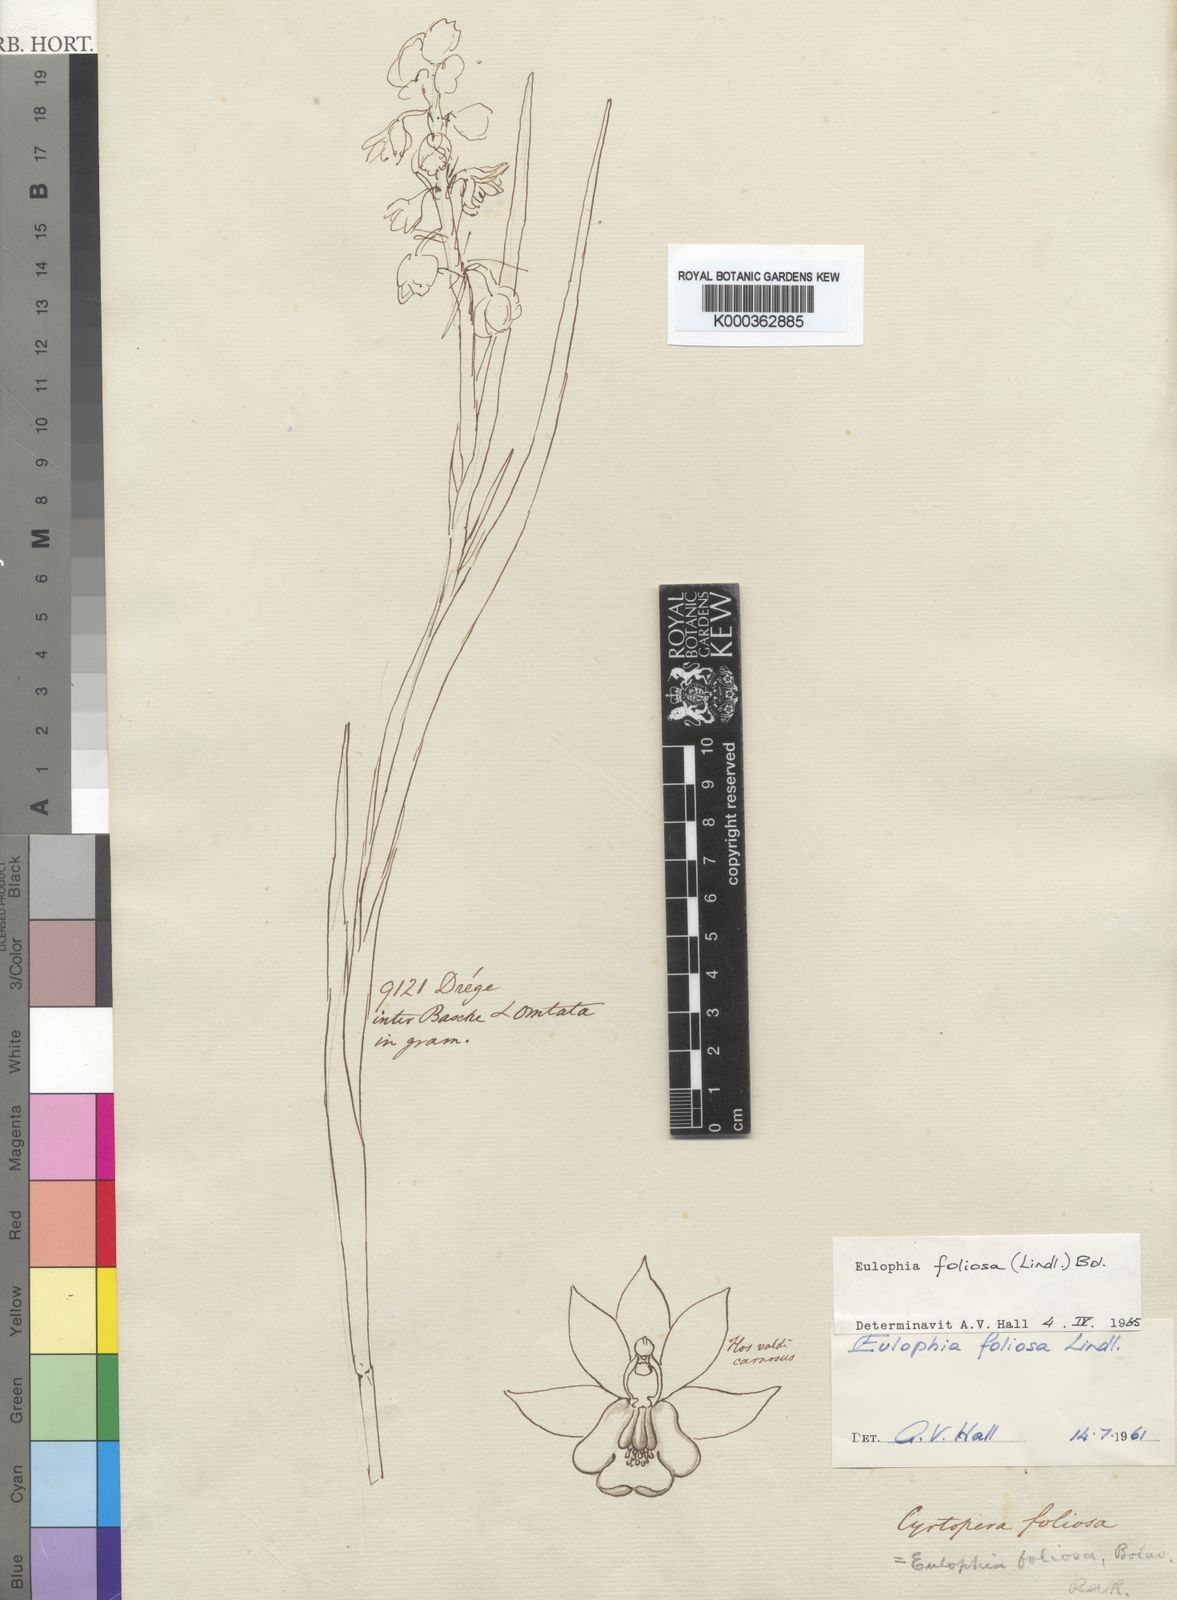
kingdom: Plantae
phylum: Tracheophyta
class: Liliopsida
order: Asparagales
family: Orchidaceae
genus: Eulophia
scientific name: Eulophia foliosa
